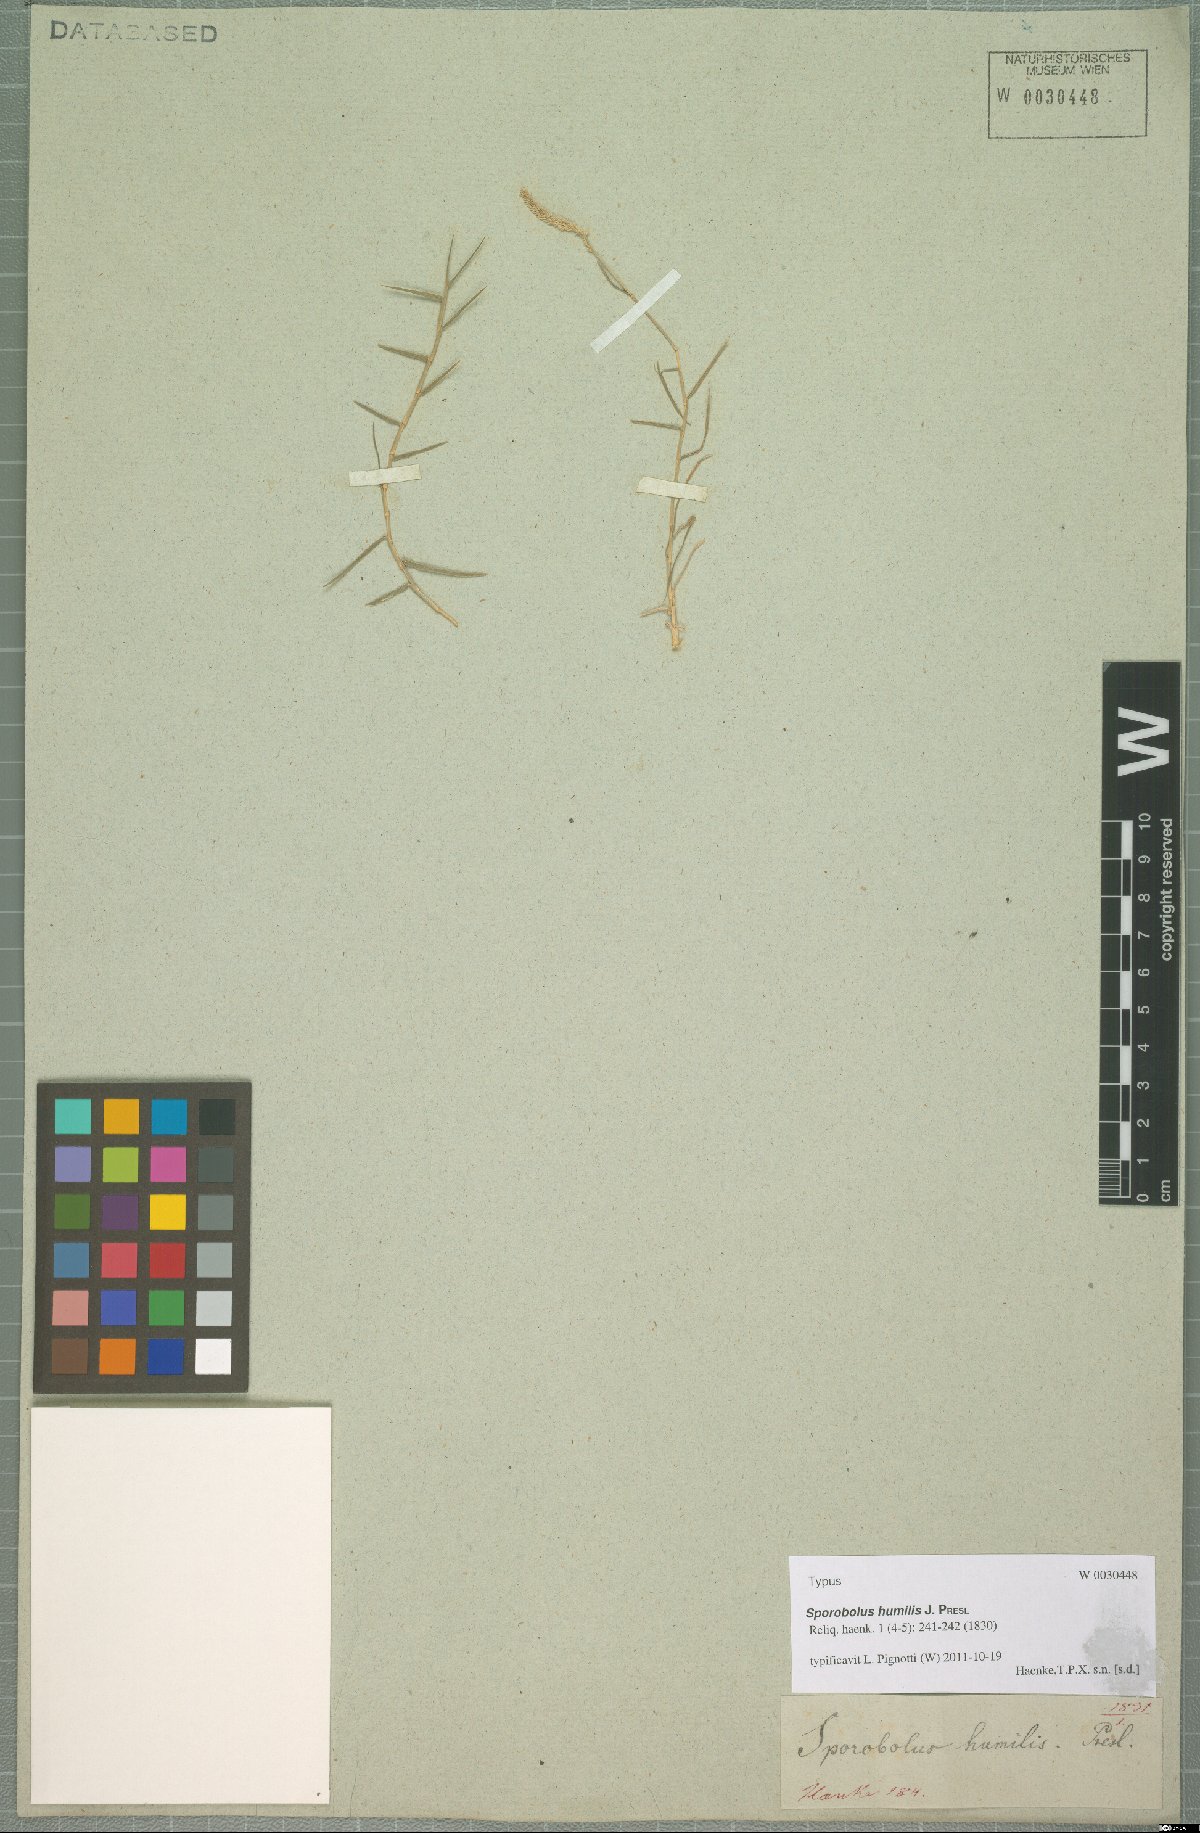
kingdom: Plantae
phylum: Tracheophyta
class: Liliopsida
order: Poales
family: Poaceae
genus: Sporobolus
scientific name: Sporobolus humilis
